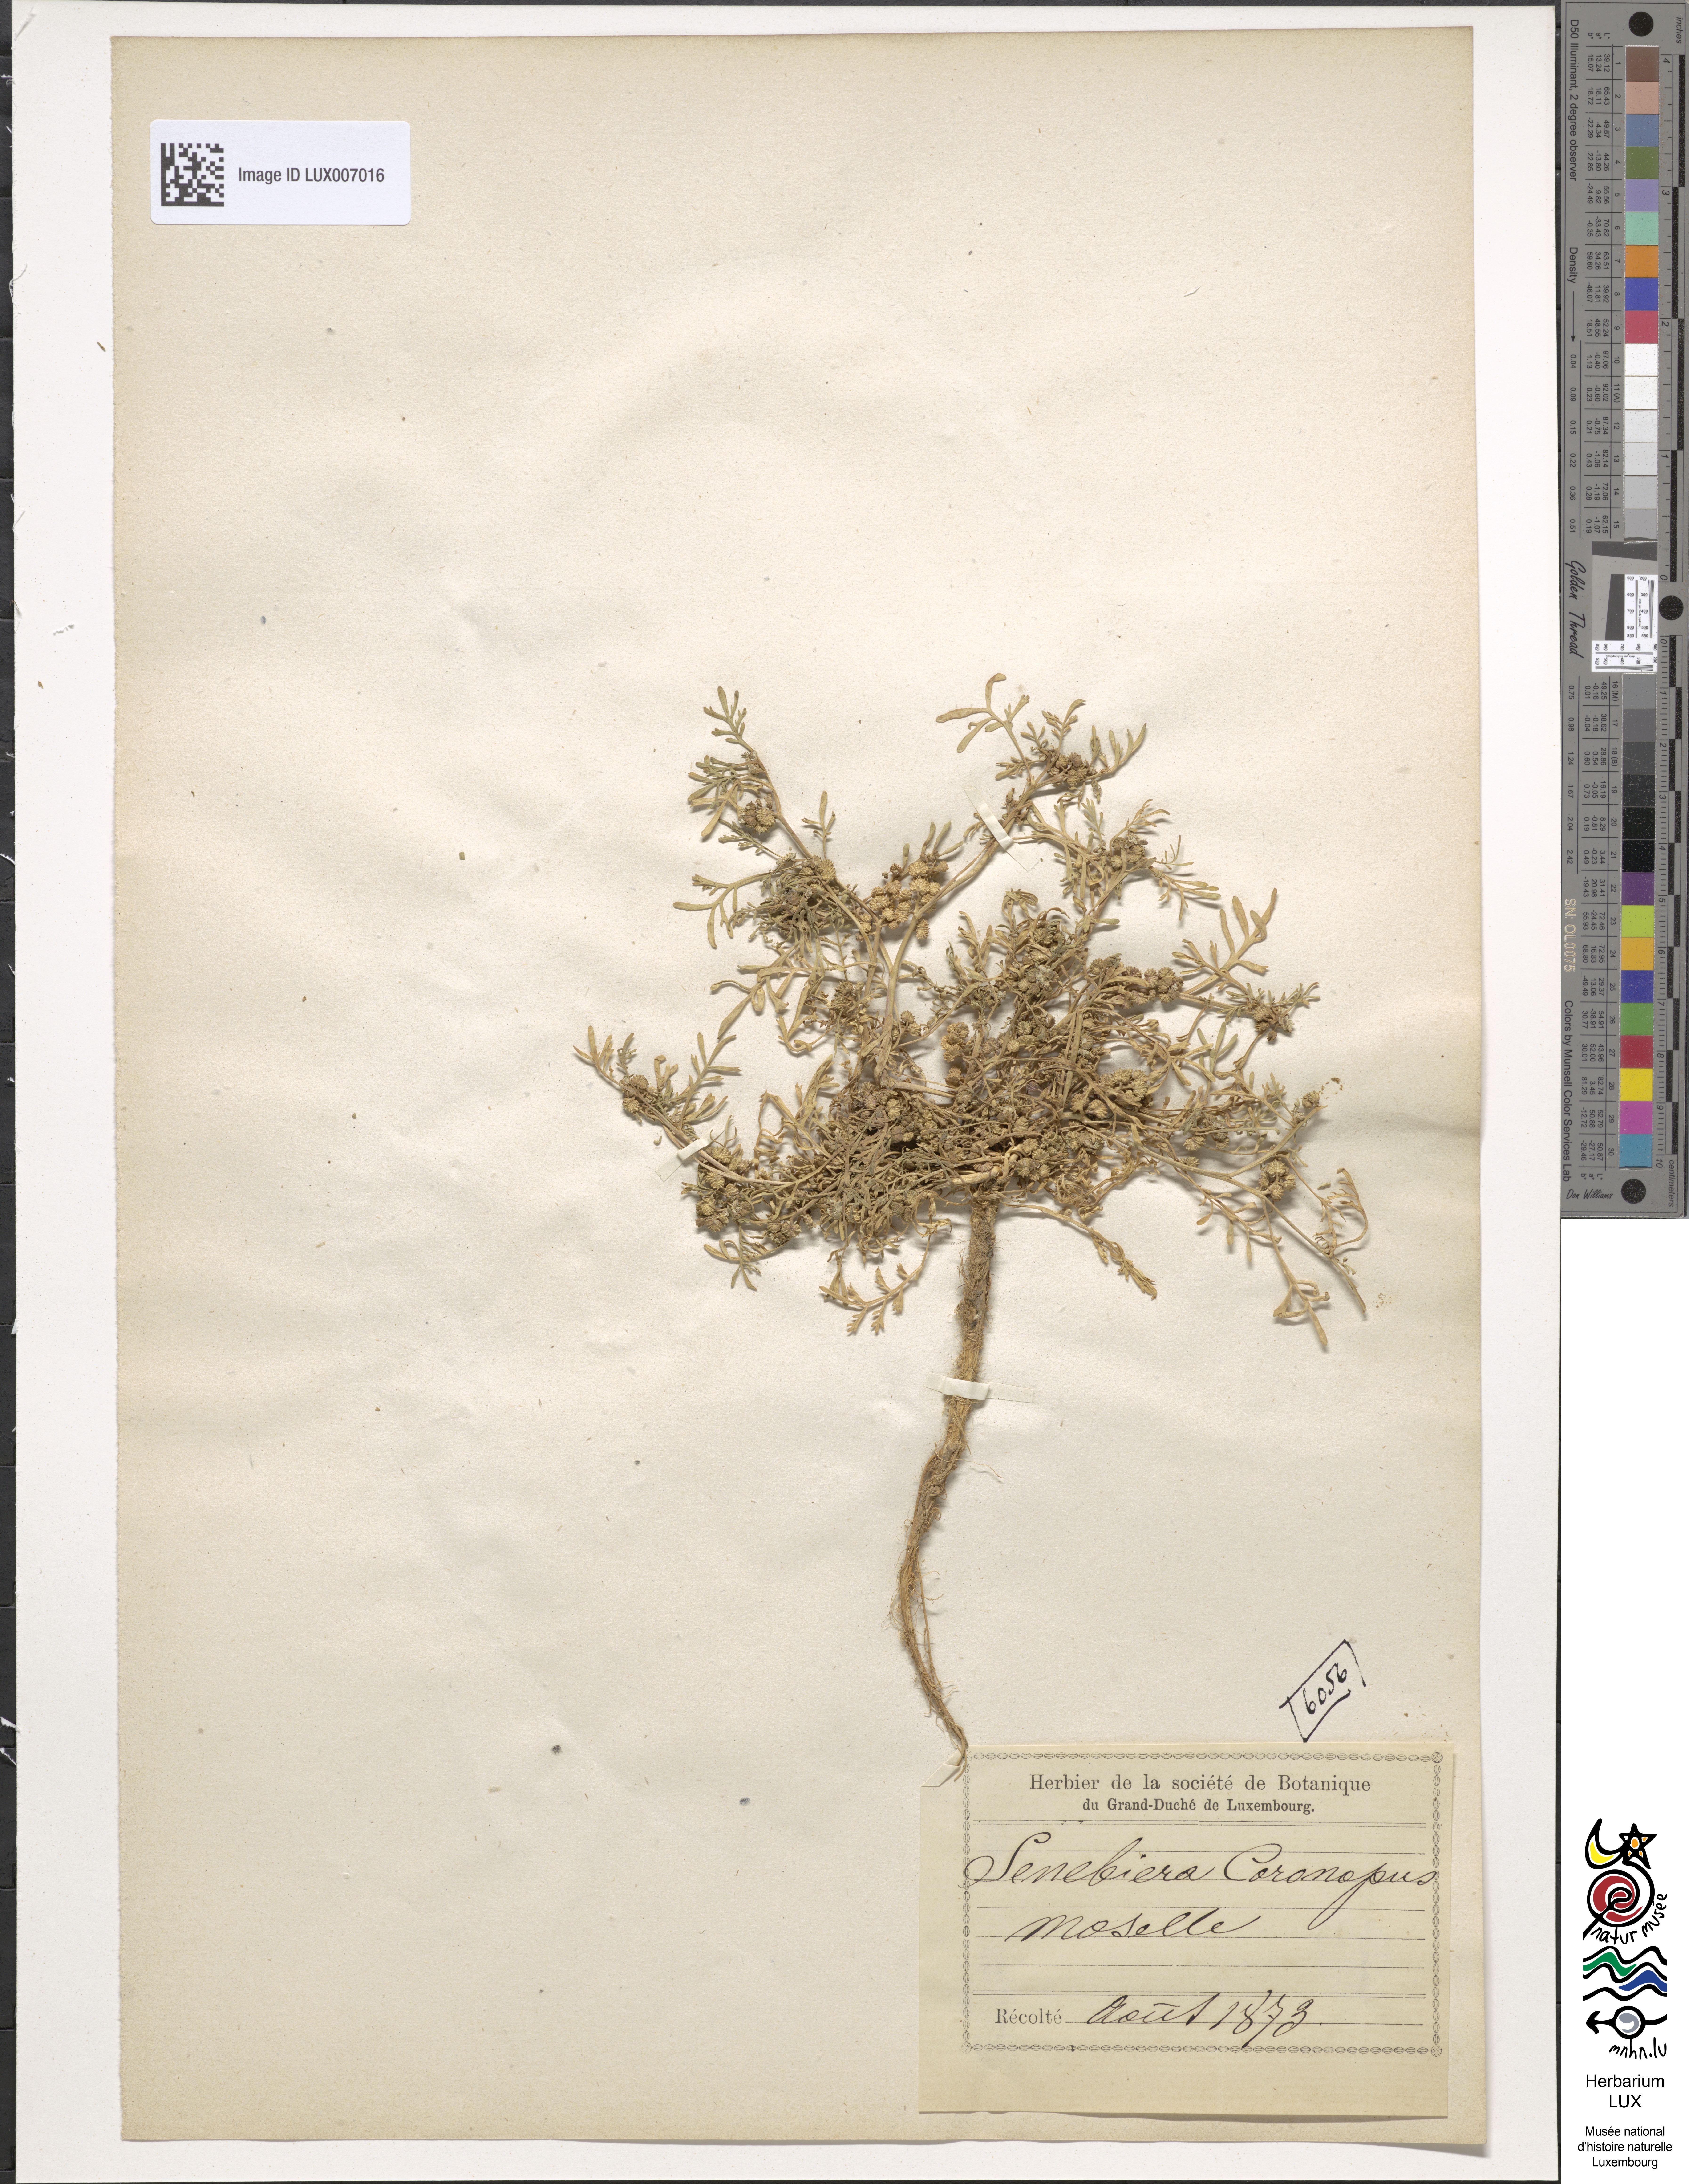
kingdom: Plantae
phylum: Tracheophyta
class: Magnoliopsida
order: Brassicales
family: Brassicaceae
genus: Lepidium
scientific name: Lepidium coronopus
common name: Greater swinecress
